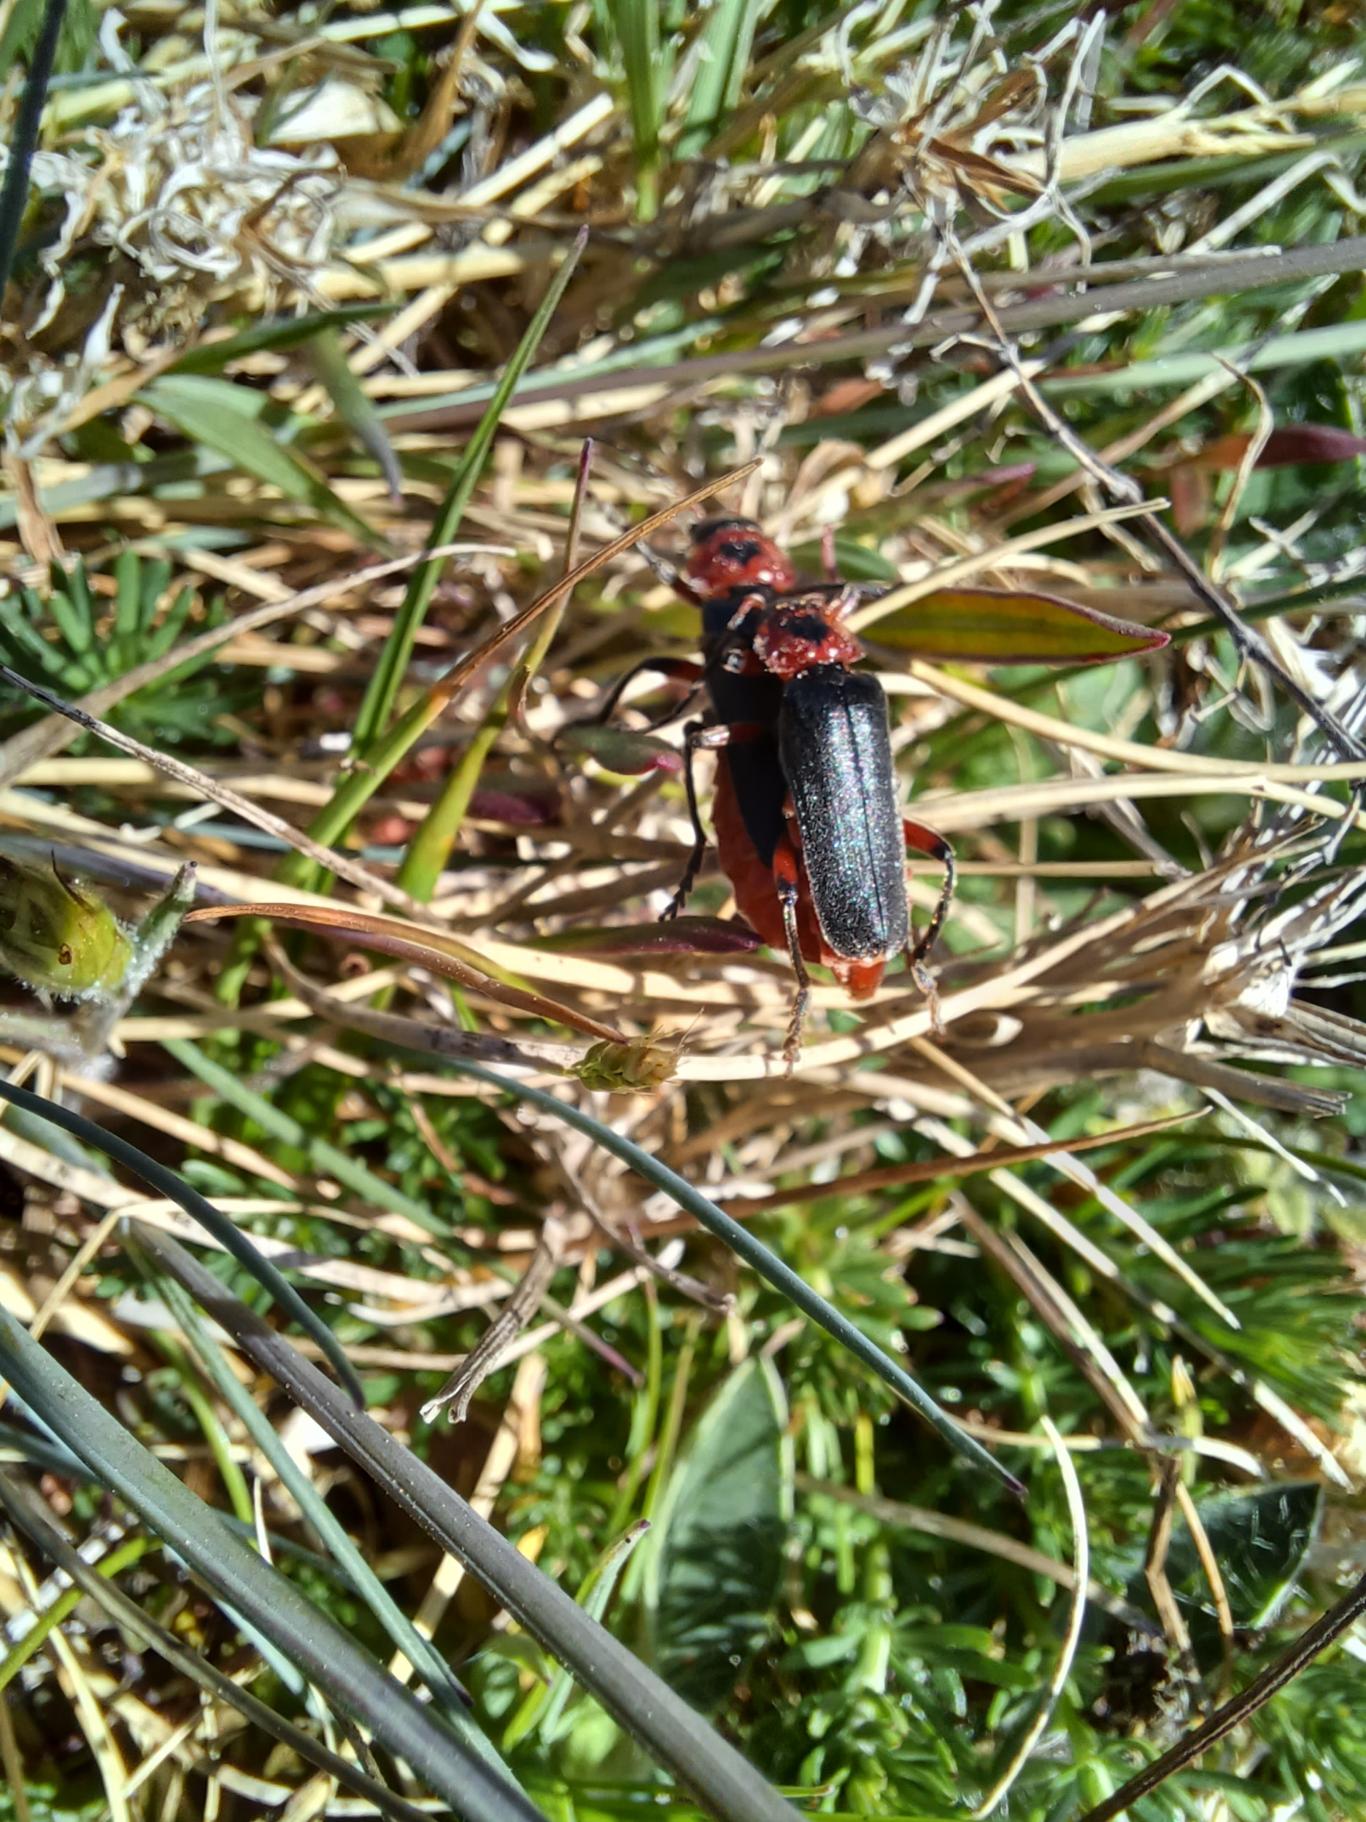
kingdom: Animalia
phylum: Arthropoda
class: Insecta
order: Coleoptera
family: Cantharidae
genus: Cantharis
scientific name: Cantharis rustica
